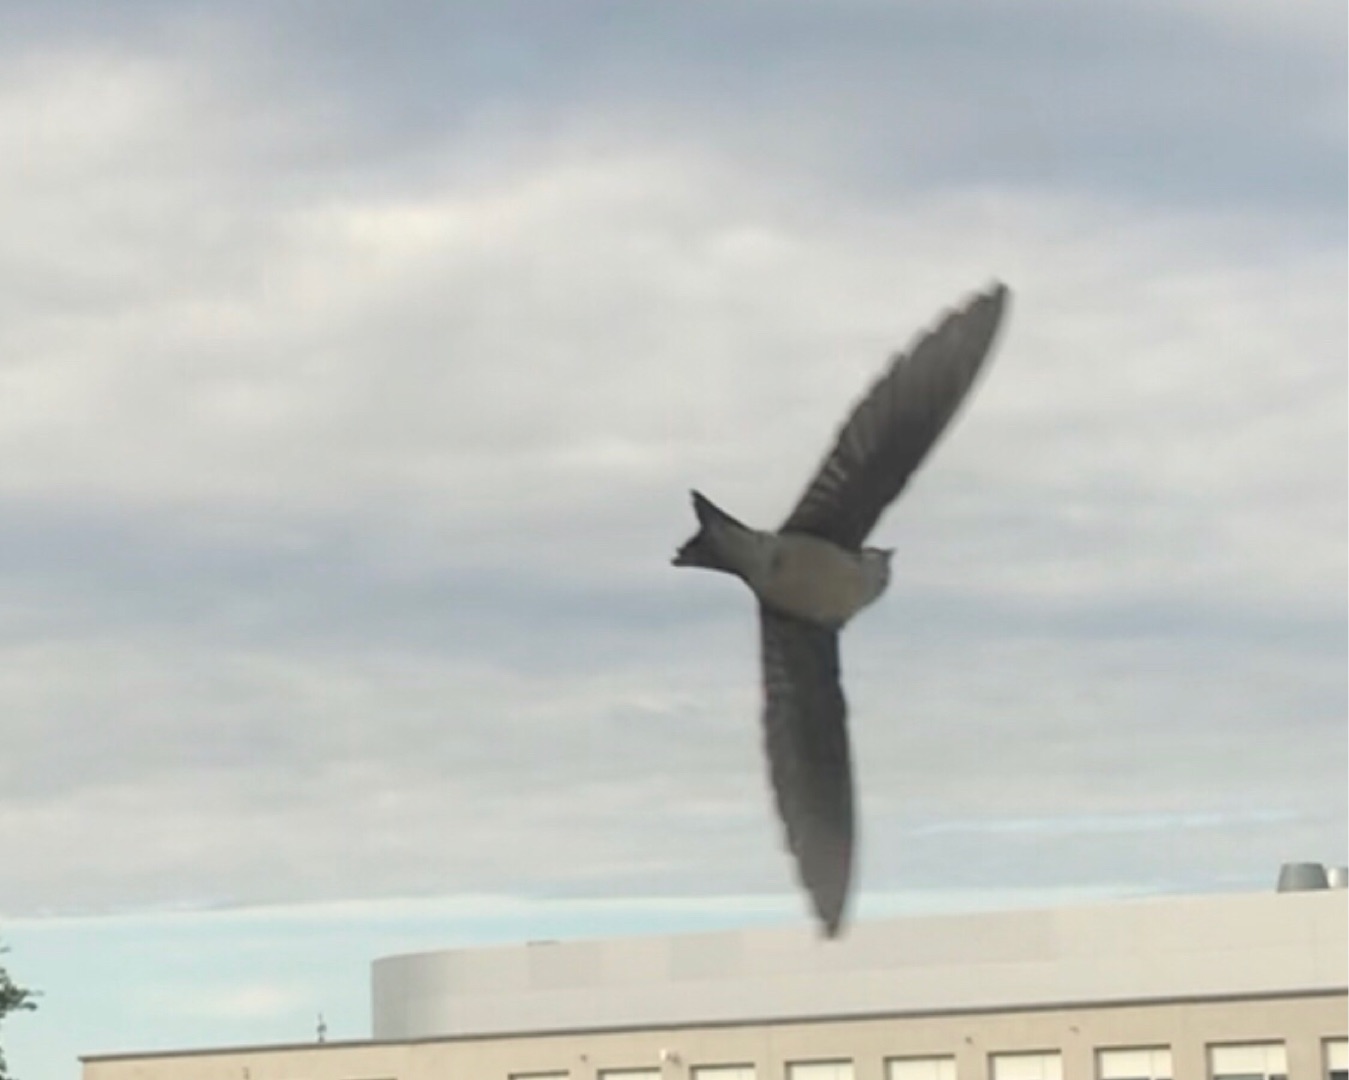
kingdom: Animalia
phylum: Chordata
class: Aves
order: Passeriformes
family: Hirundinidae
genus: Delichon
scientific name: Delichon urbicum
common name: Bysvale
